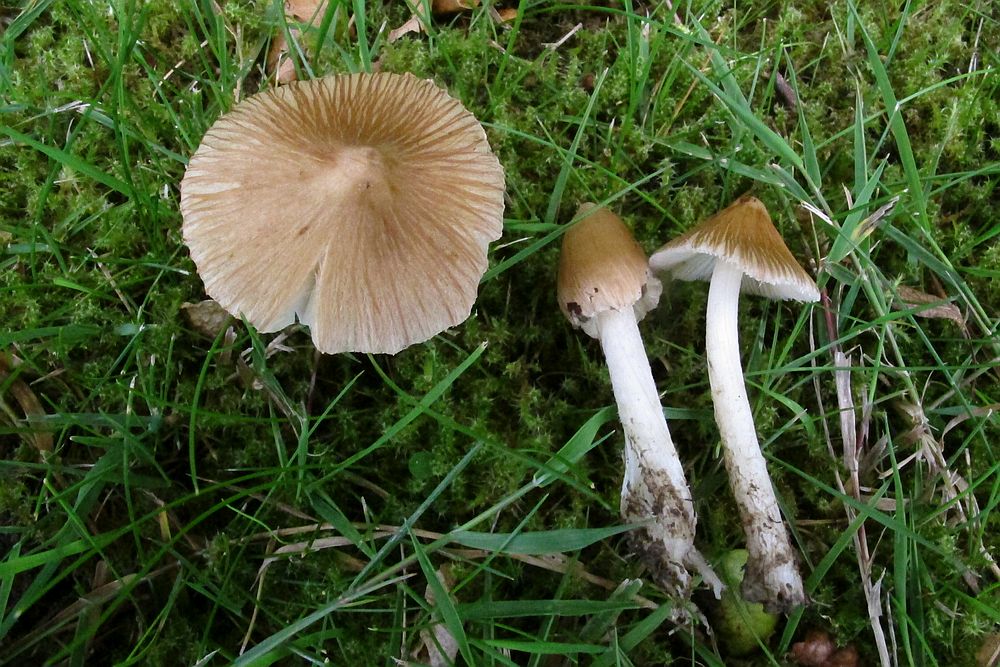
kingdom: Fungi
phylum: Basidiomycota
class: Agaricomycetes
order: Agaricales
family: Inocybaceae
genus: Pseudosperma
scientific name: Pseudosperma rimosum
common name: gulbladet trævlhat
